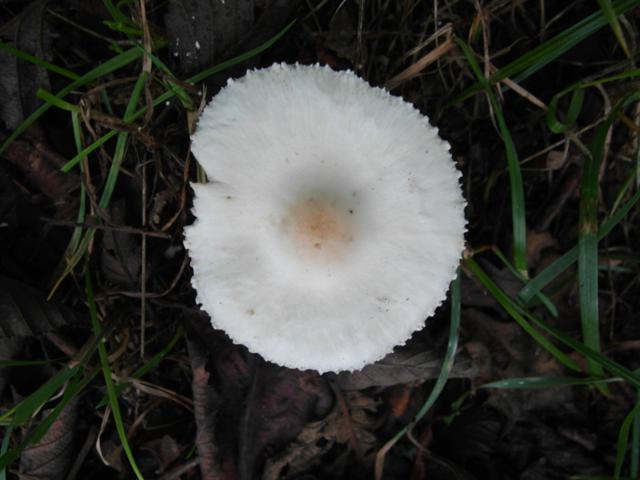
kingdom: Fungi
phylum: Basidiomycota
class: Agaricomycetes
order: Agaricales
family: Agaricaceae
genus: Lepiota
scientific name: Lepiota erminea
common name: hvid parasolhat
